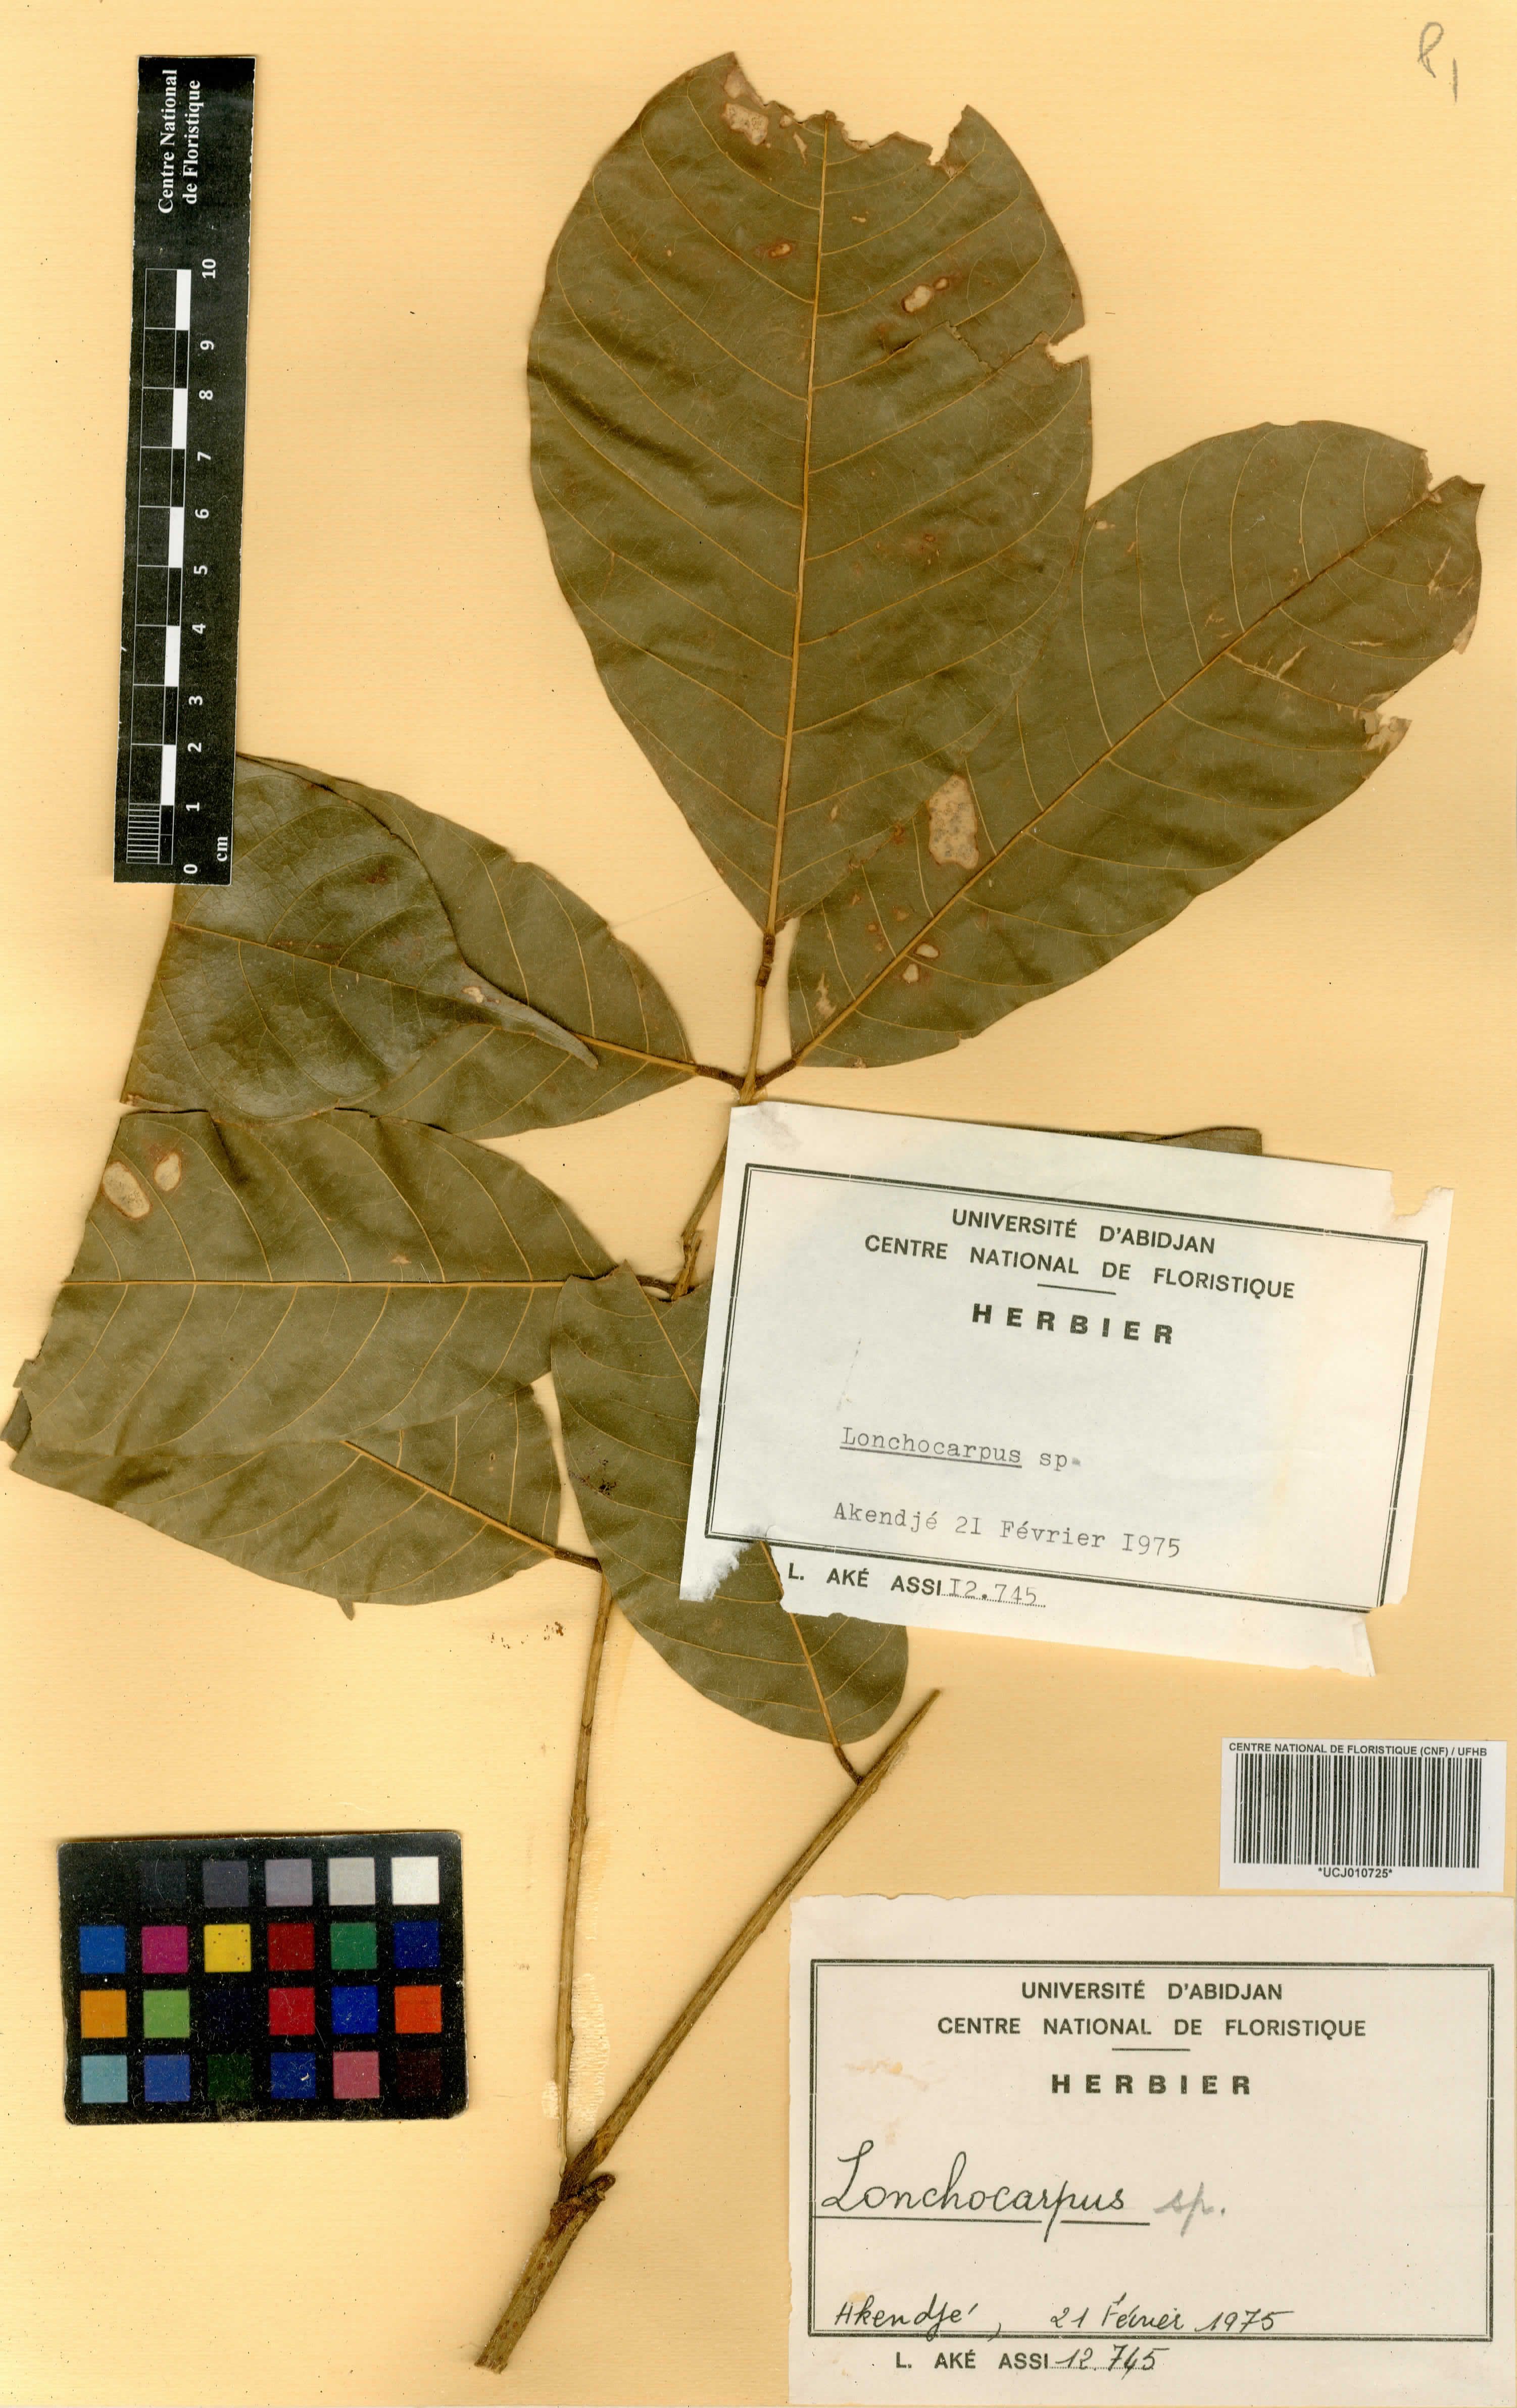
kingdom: Plantae
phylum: Tracheophyta
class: Magnoliopsida
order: Fabales
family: Fabaceae
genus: Lonchocarpus
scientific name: Lonchocarpus
